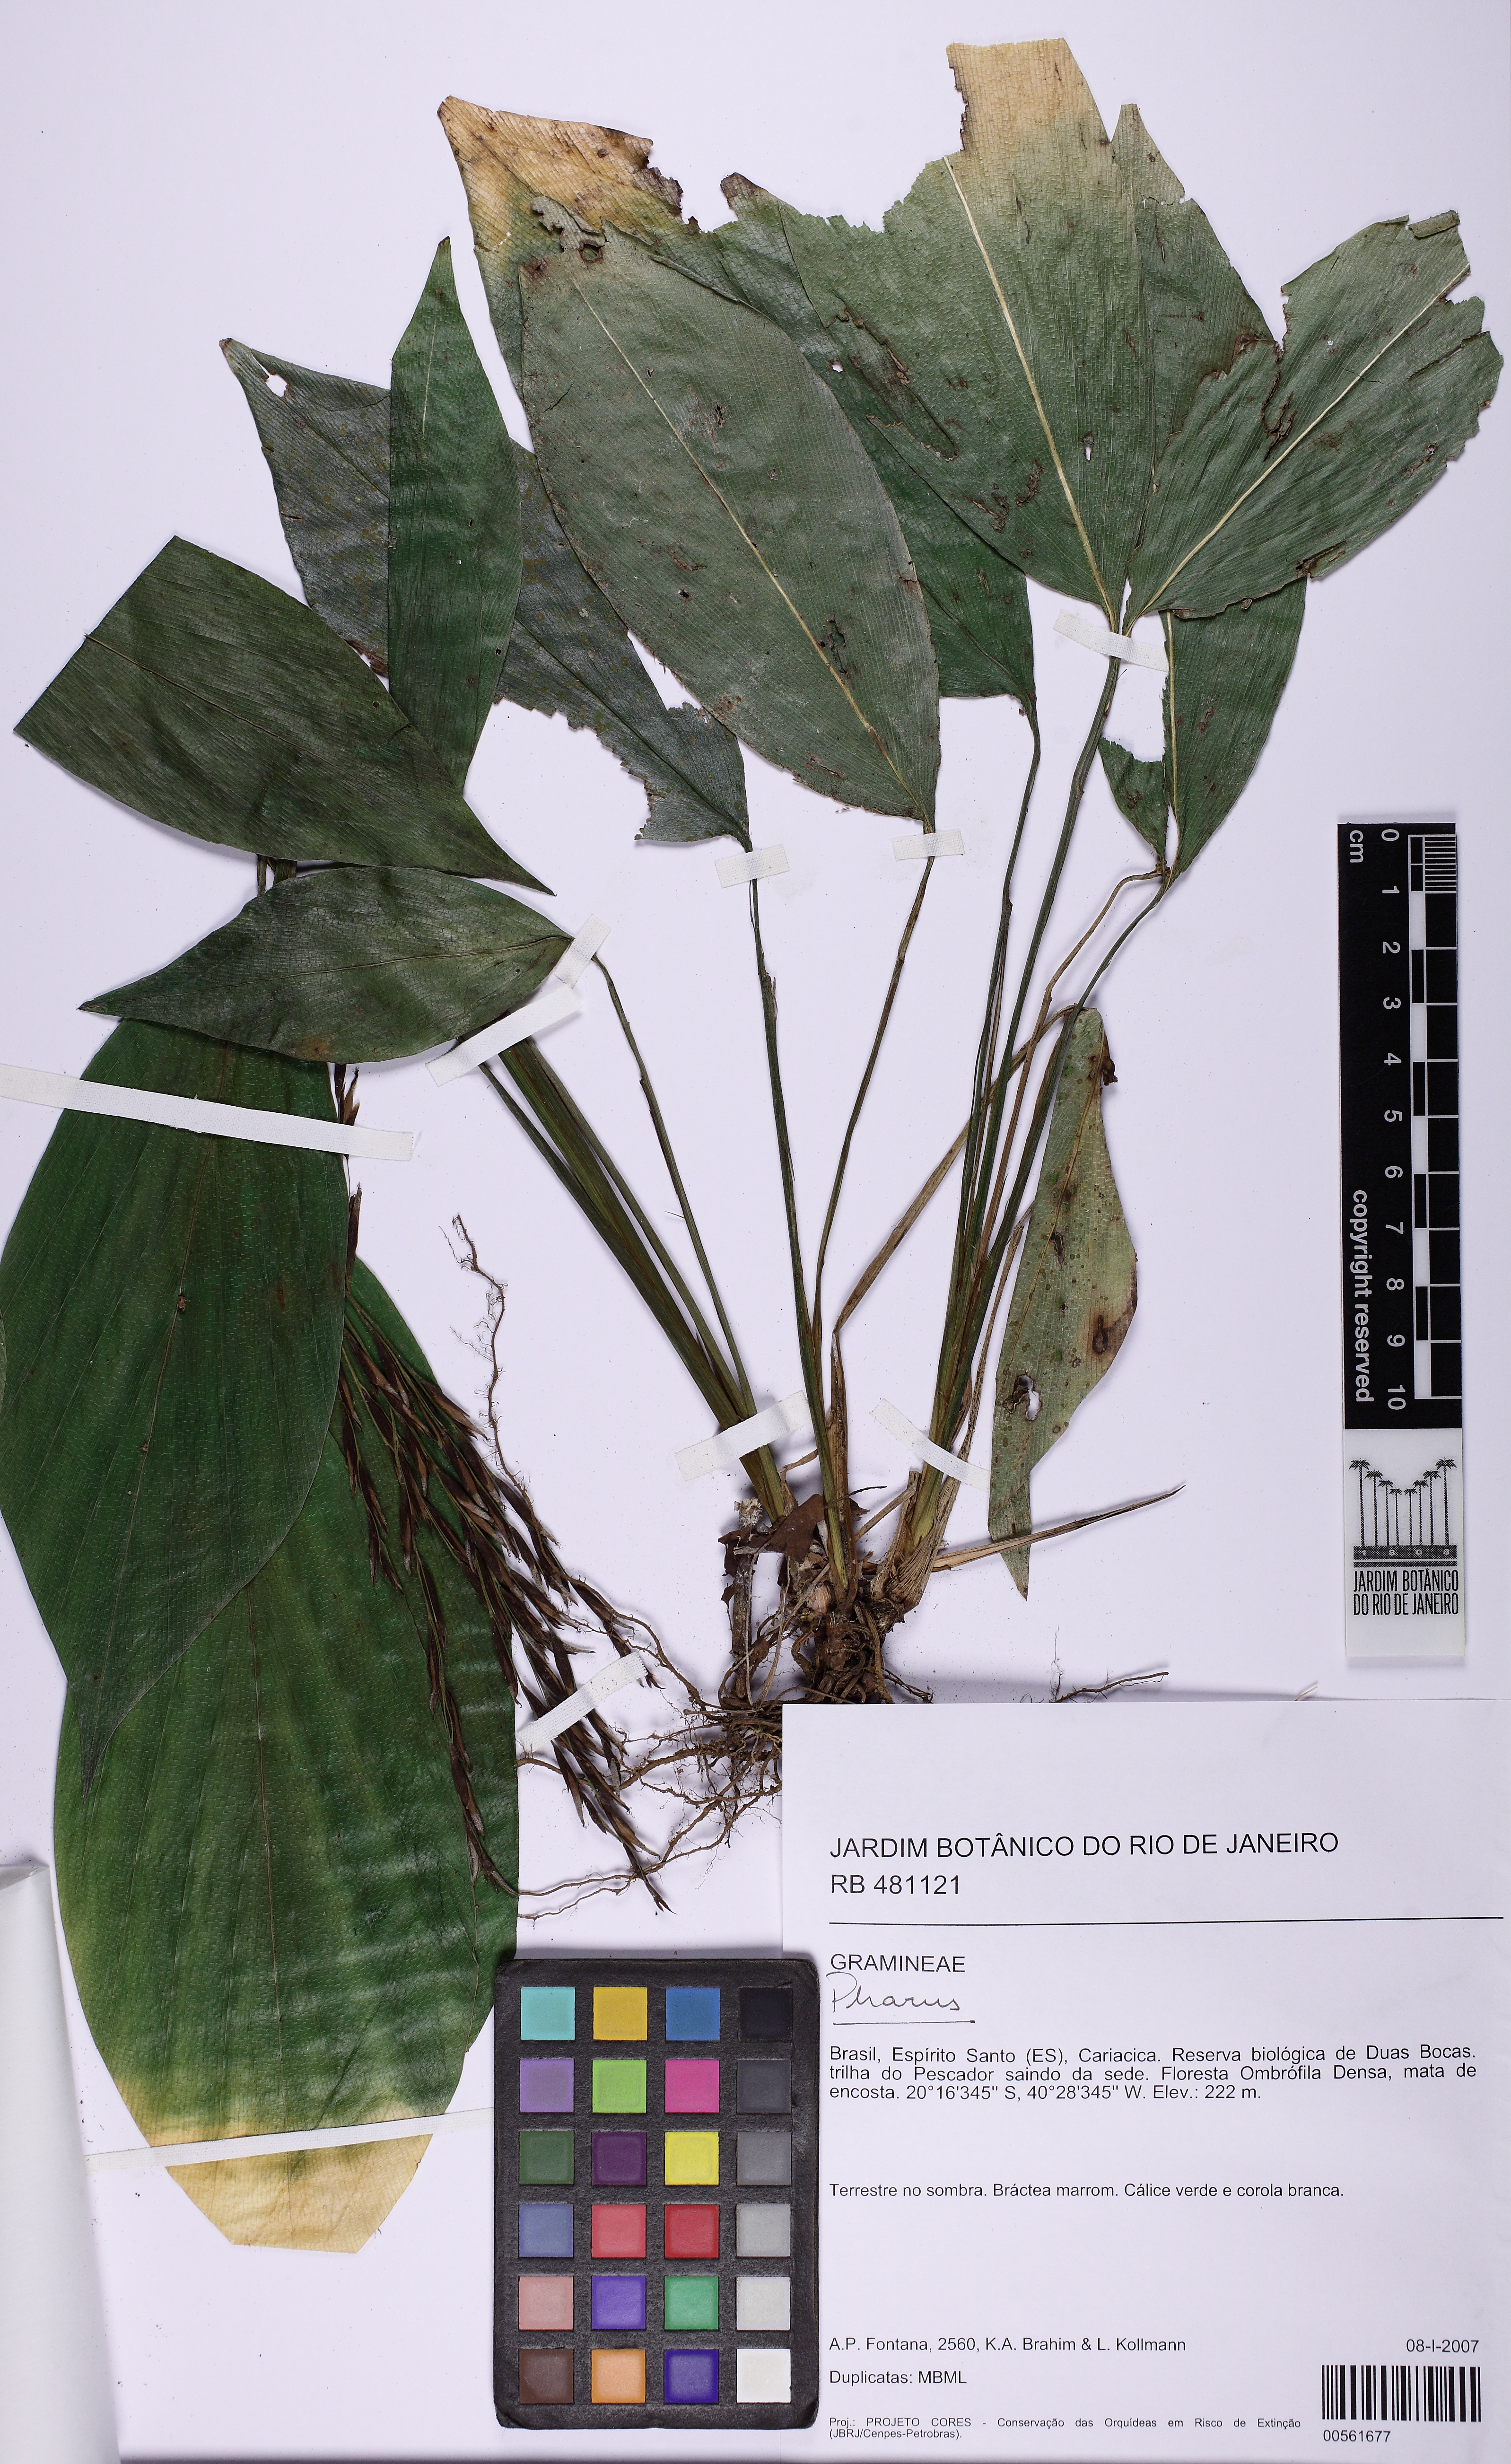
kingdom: Plantae
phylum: Tracheophyta
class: Liliopsida
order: Poales
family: Poaceae
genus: Pharus
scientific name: Pharus
